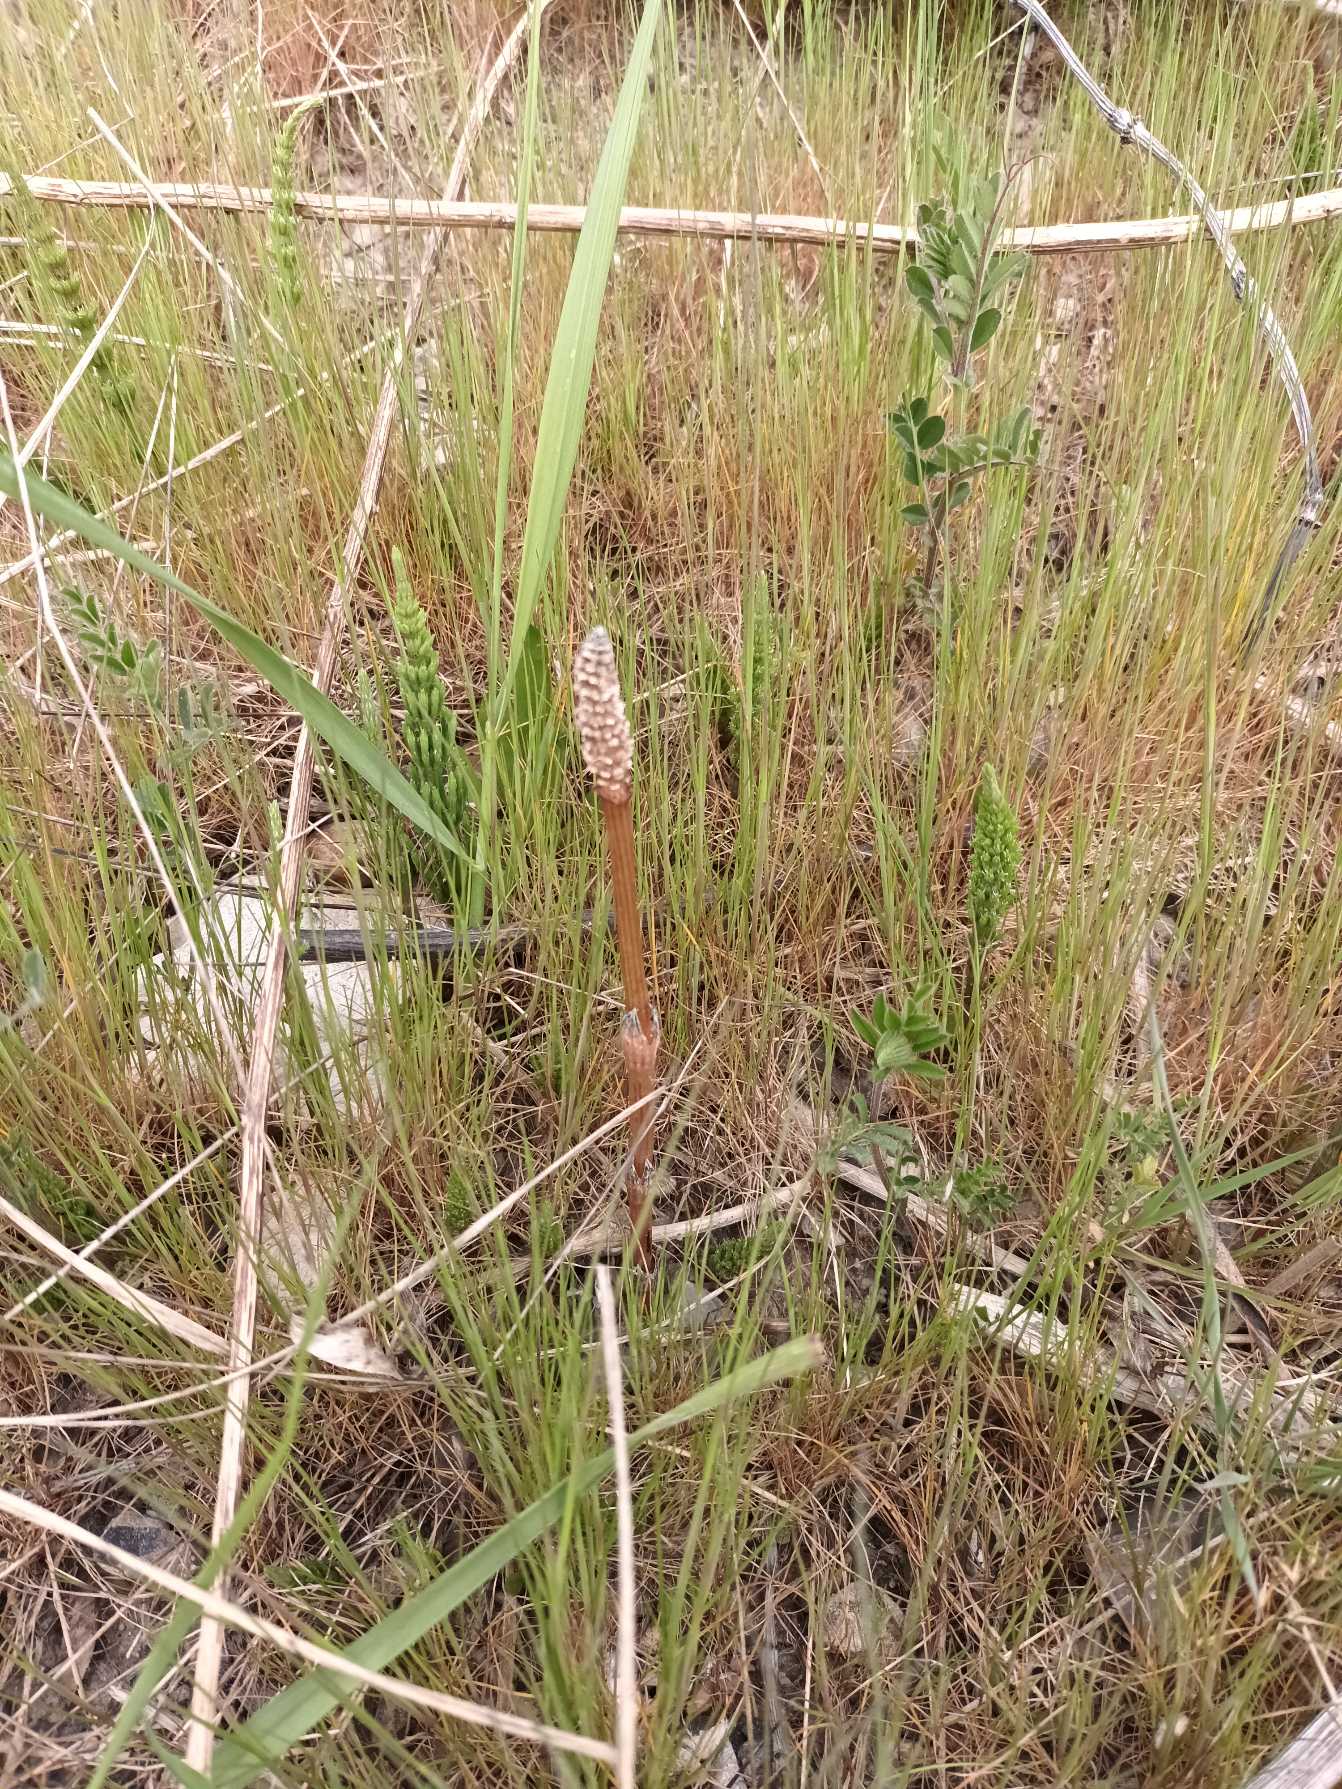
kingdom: Plantae
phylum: Tracheophyta
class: Polypodiopsida
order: Equisetales
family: Equisetaceae
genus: Equisetum
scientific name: Equisetum arvense
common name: Ager-padderok
